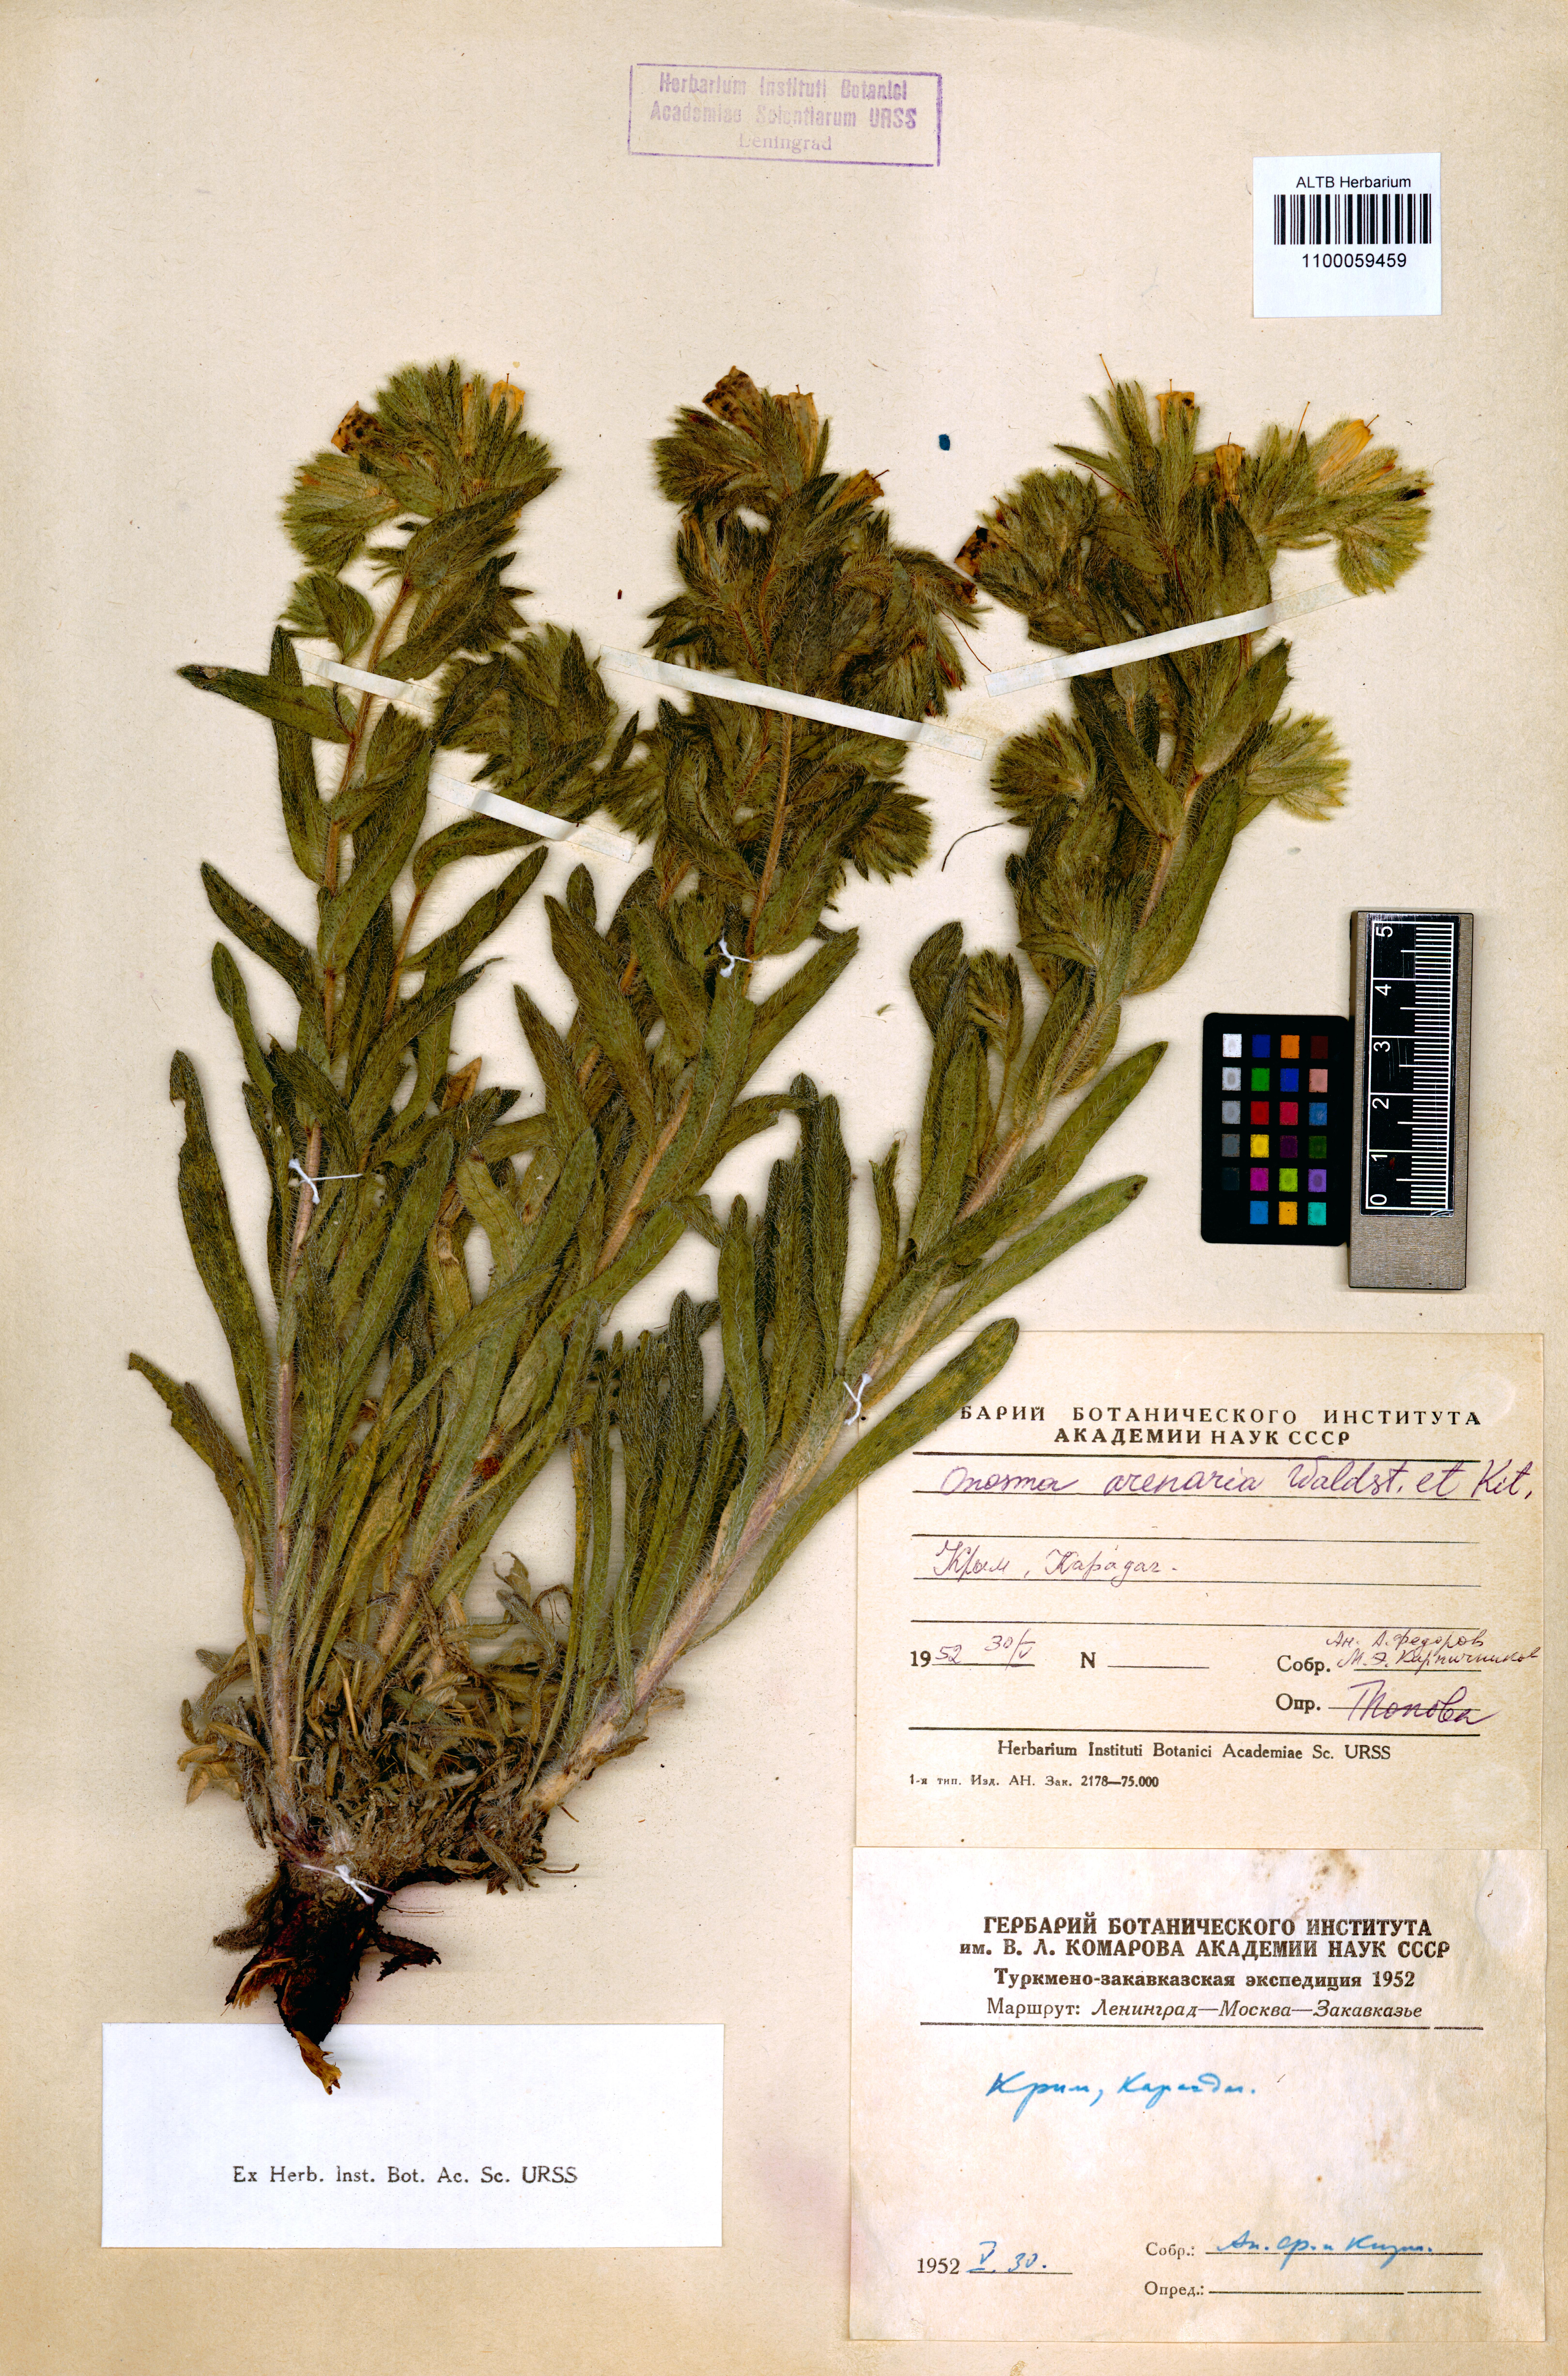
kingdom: Plantae
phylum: Tracheophyta
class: Magnoliopsida
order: Boraginales
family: Boraginaceae
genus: Onosma
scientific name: Onosma arenaria
